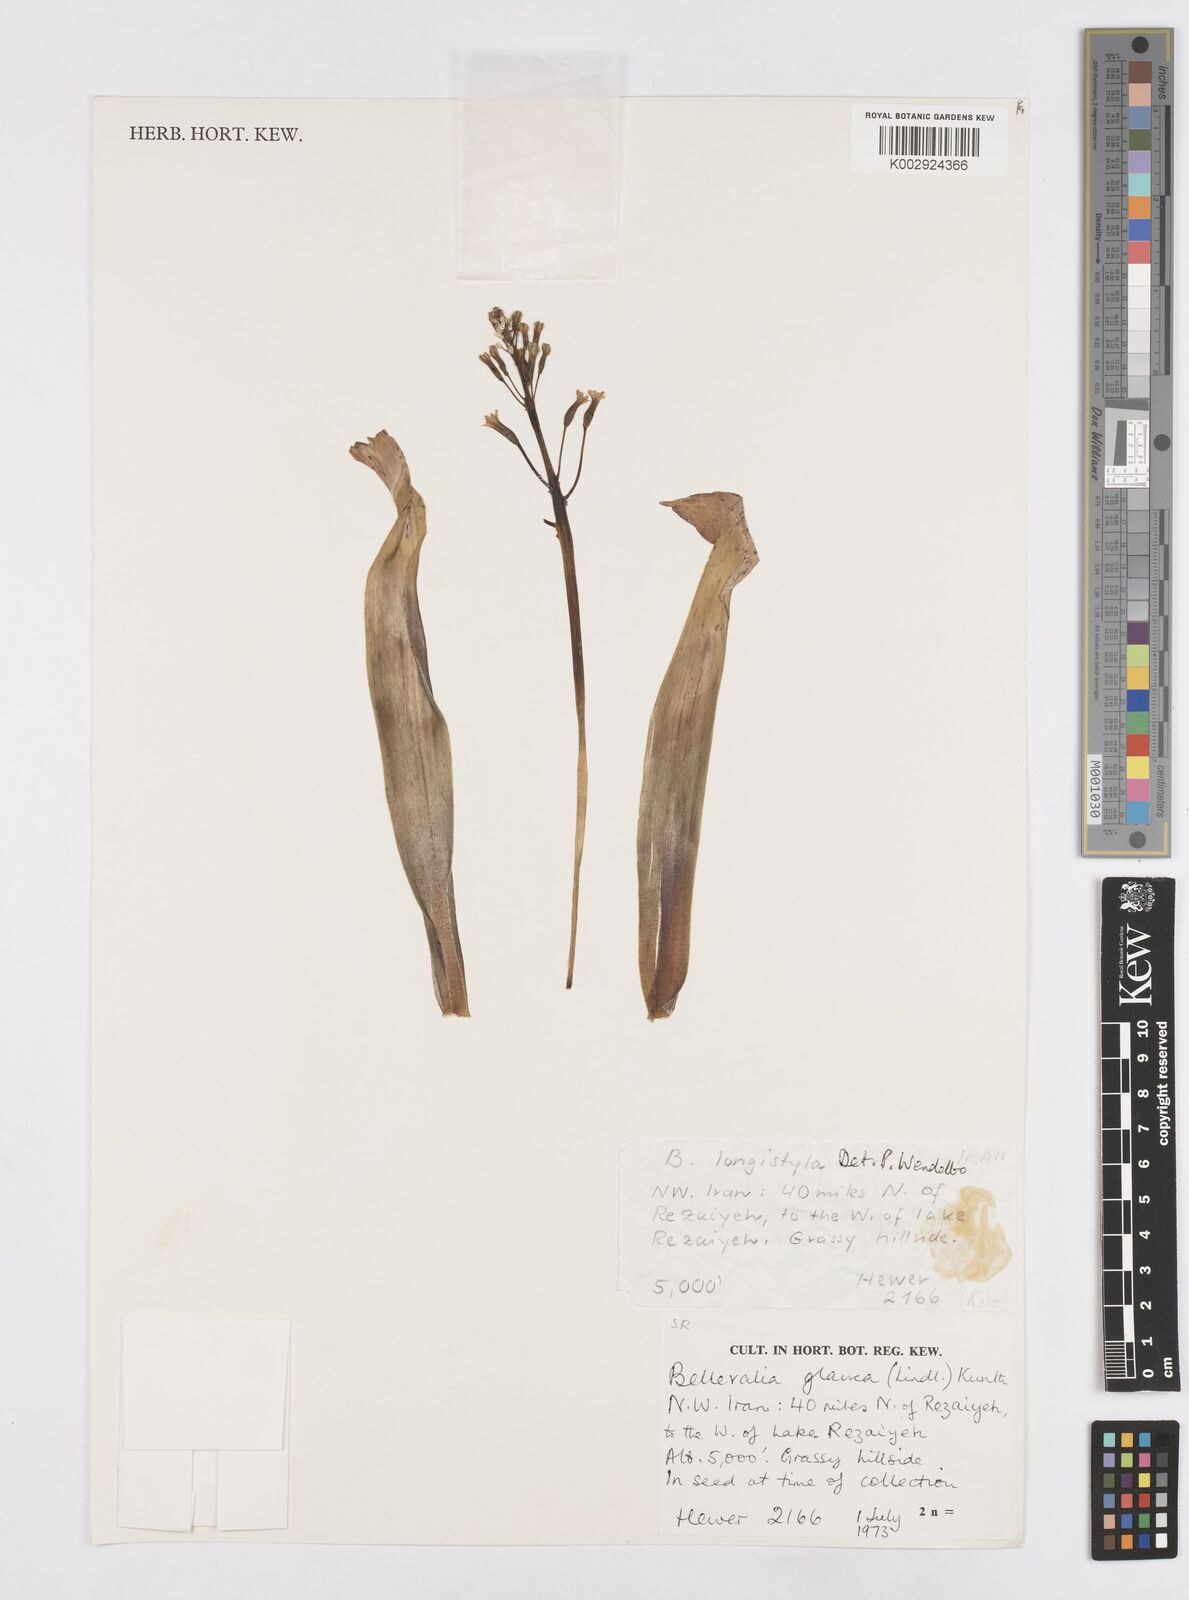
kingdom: Plantae
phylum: Tracheophyta
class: Liliopsida
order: Asparagales
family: Asparagaceae
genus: Bellevalia
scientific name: Bellevalia longistyla
